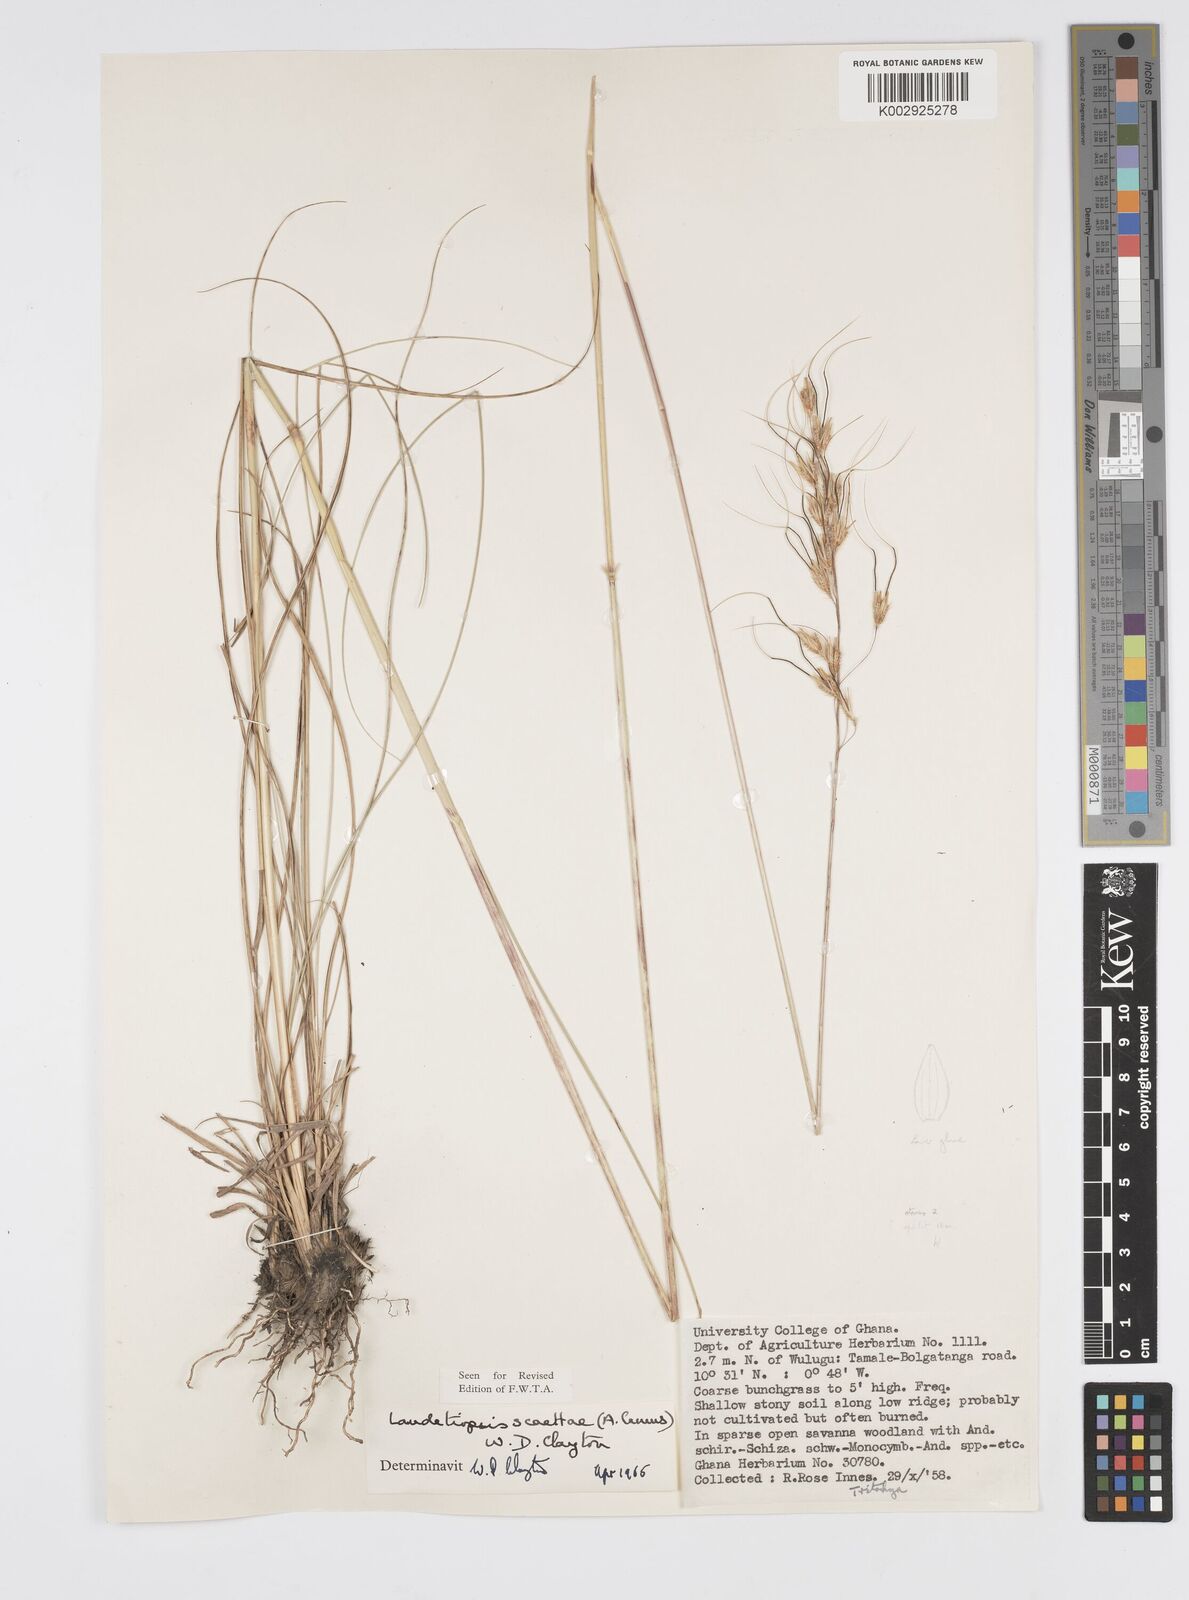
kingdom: Plantae
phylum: Tracheophyta
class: Liliopsida
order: Poales
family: Poaceae
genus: Loudetiopsis
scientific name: Loudetiopsis scaettae
